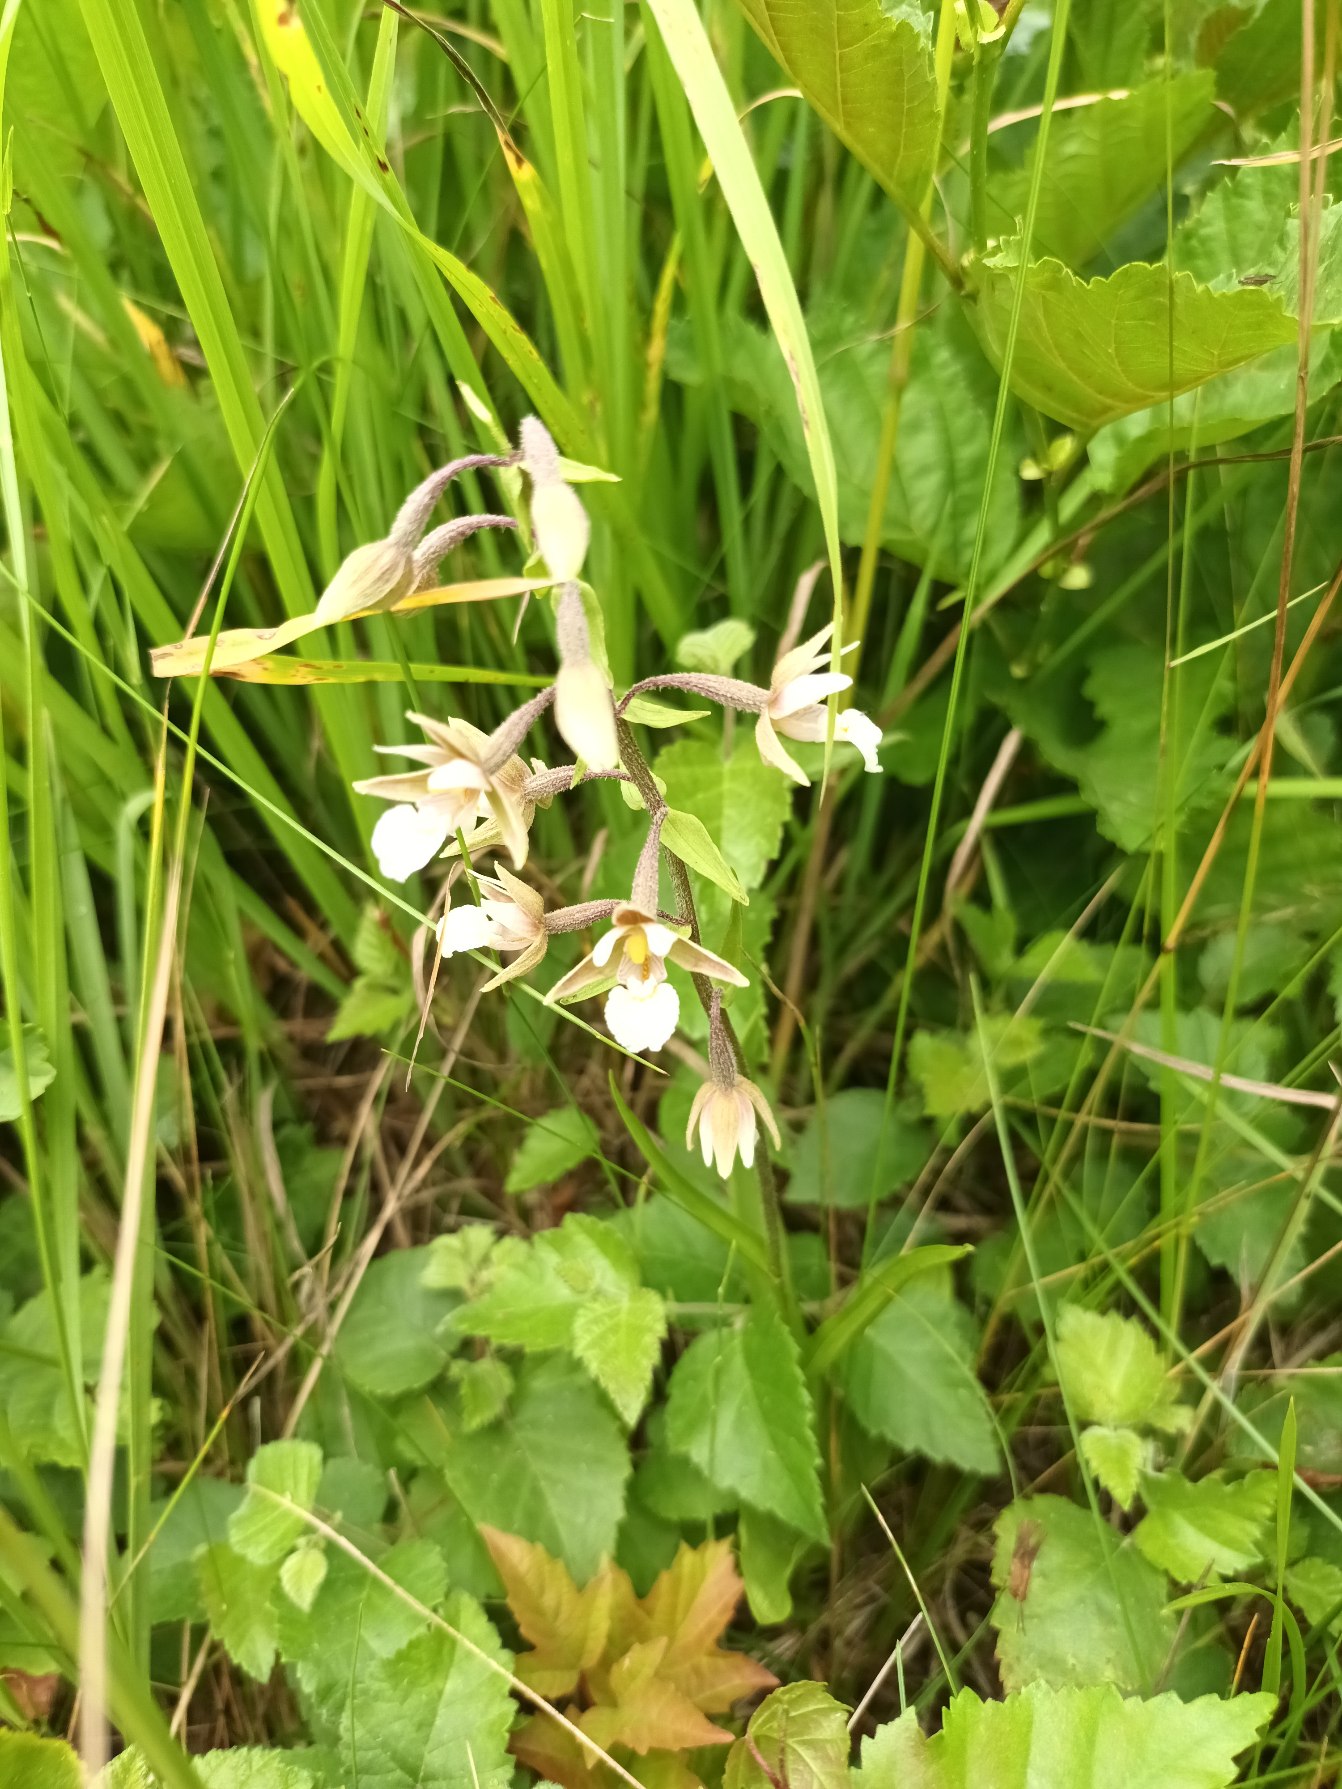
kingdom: Plantae
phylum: Tracheophyta
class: Liliopsida
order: Asparagales
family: Orchidaceae
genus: Epipactis
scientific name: Epipactis palustris
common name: Sump-hullæbe
